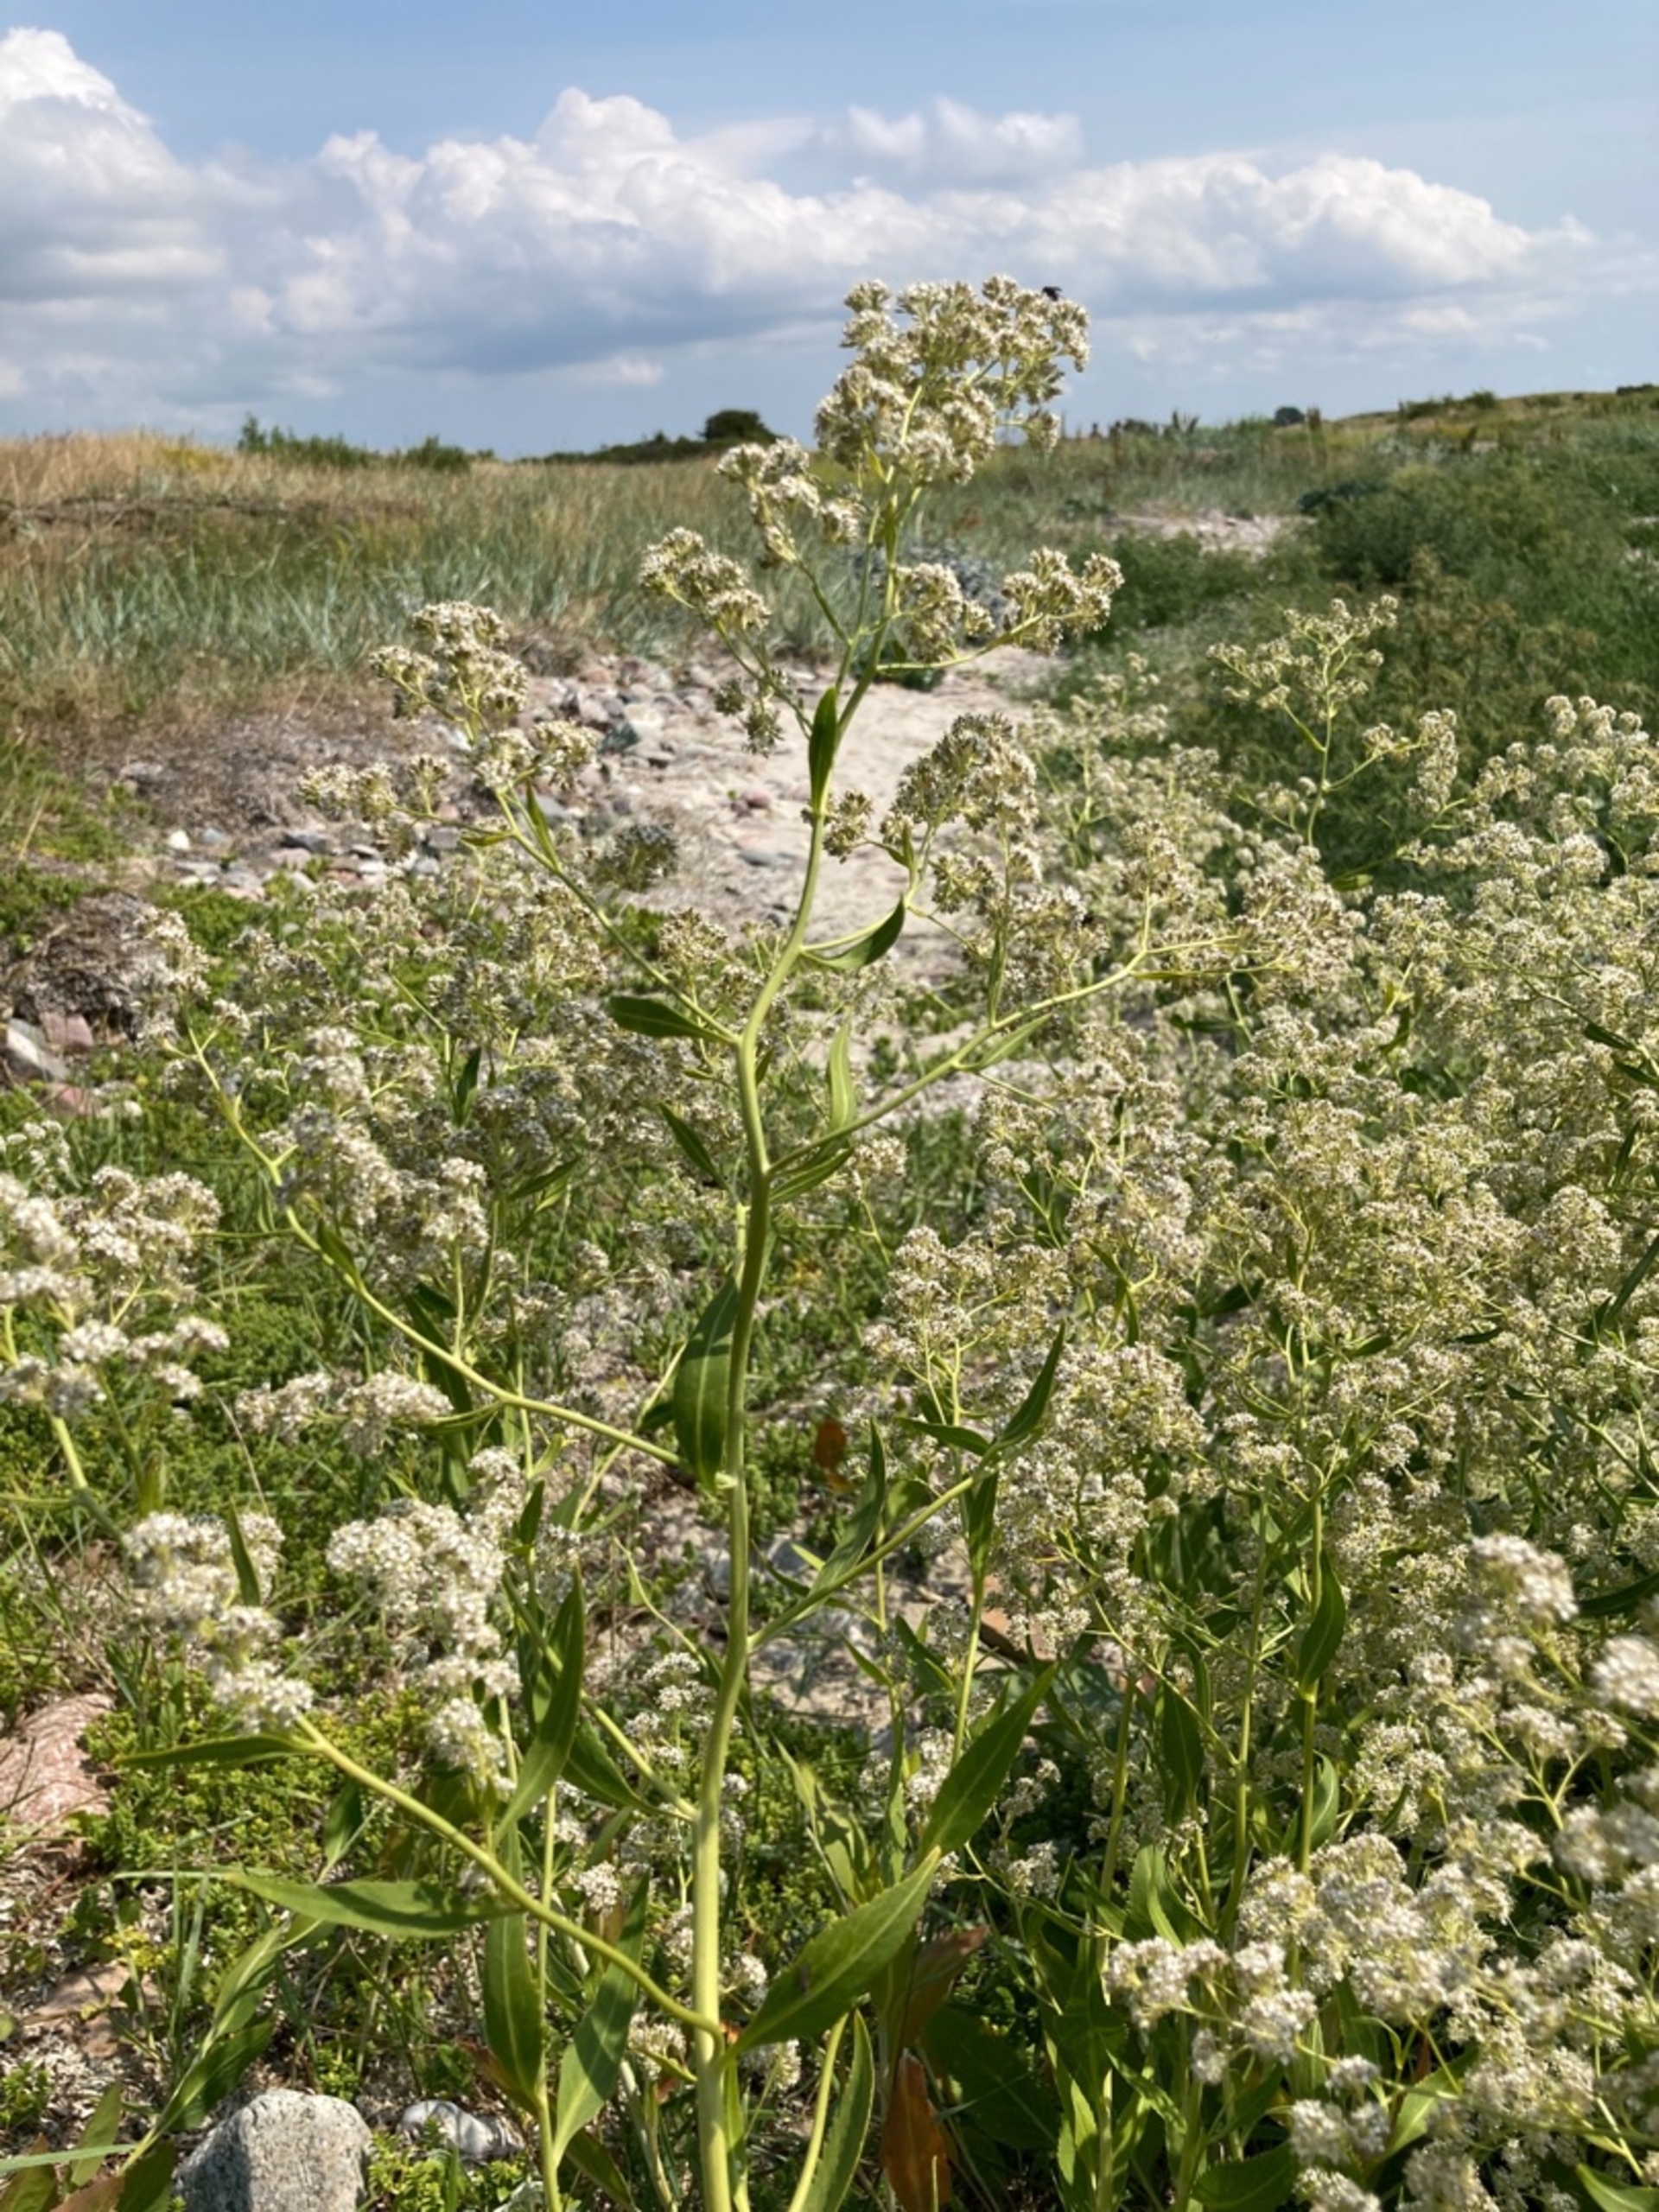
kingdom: Plantae
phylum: Tracheophyta
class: Magnoliopsida
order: Brassicales
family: Brassicaceae
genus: Lepidium
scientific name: Lepidium latifolium
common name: Strand-karse
